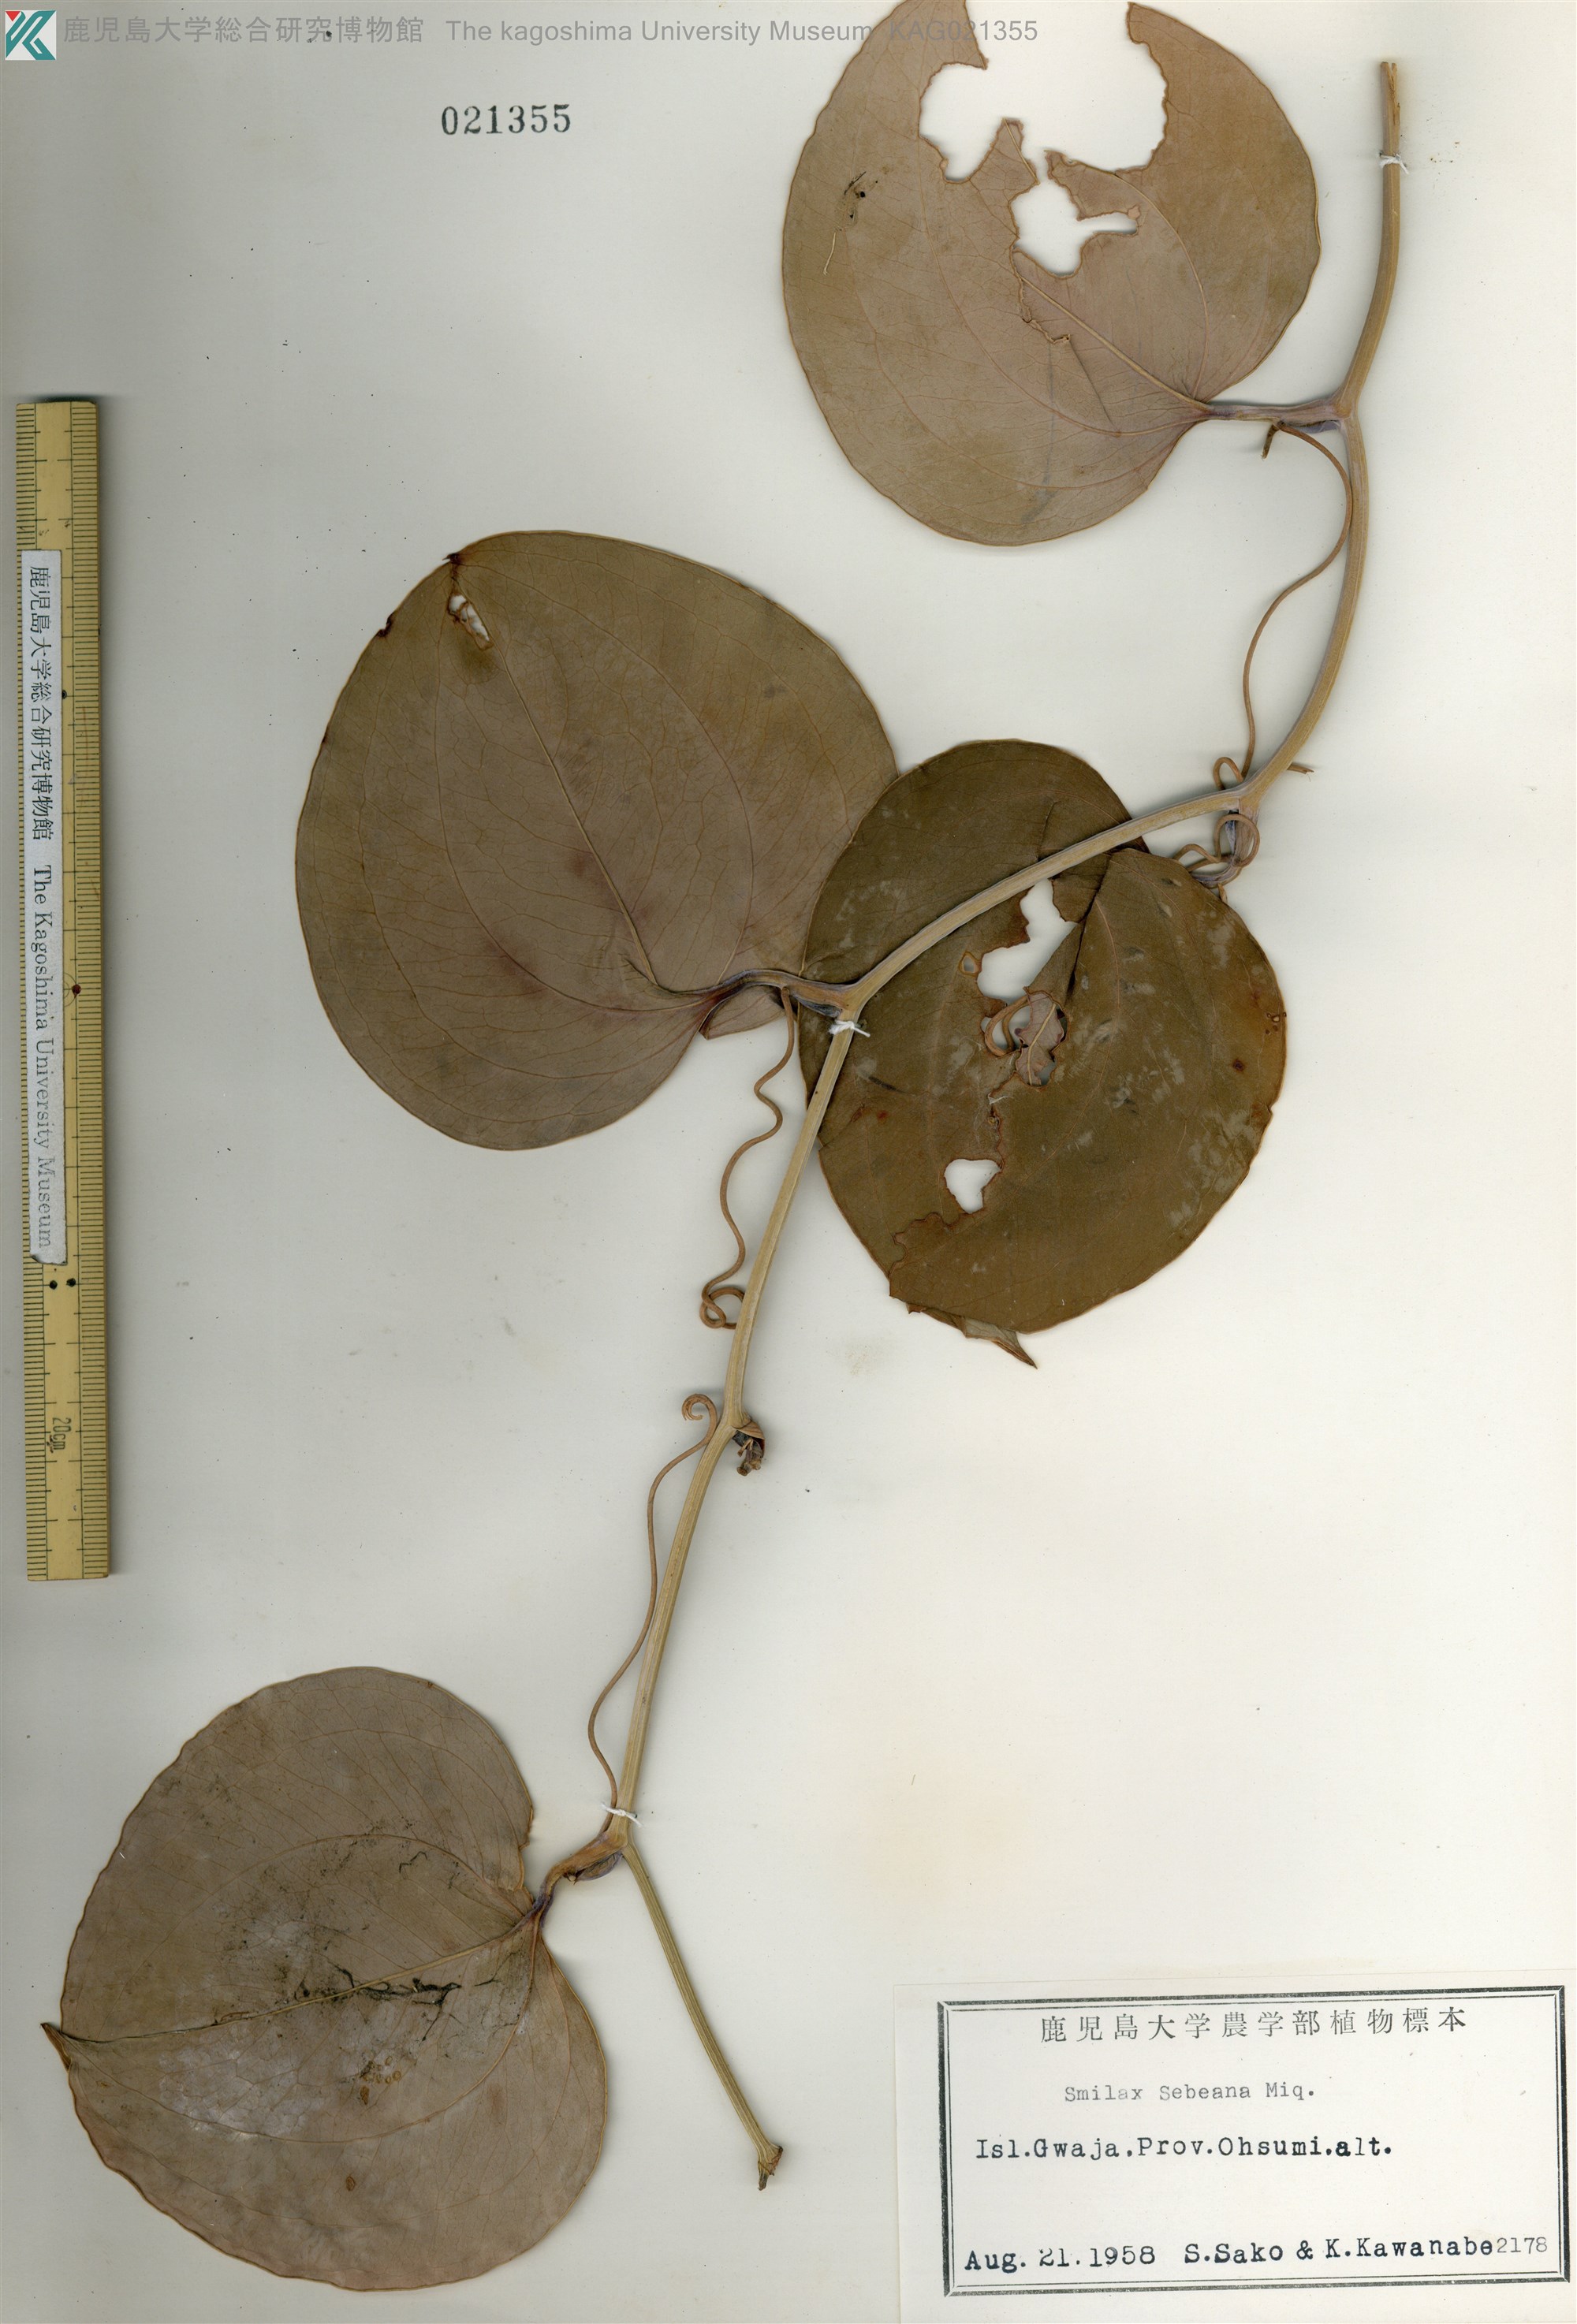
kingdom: Plantae
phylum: Tracheophyta
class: Liliopsida
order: Liliales
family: Smilacaceae
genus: Smilax
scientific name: Smilax sebeana
